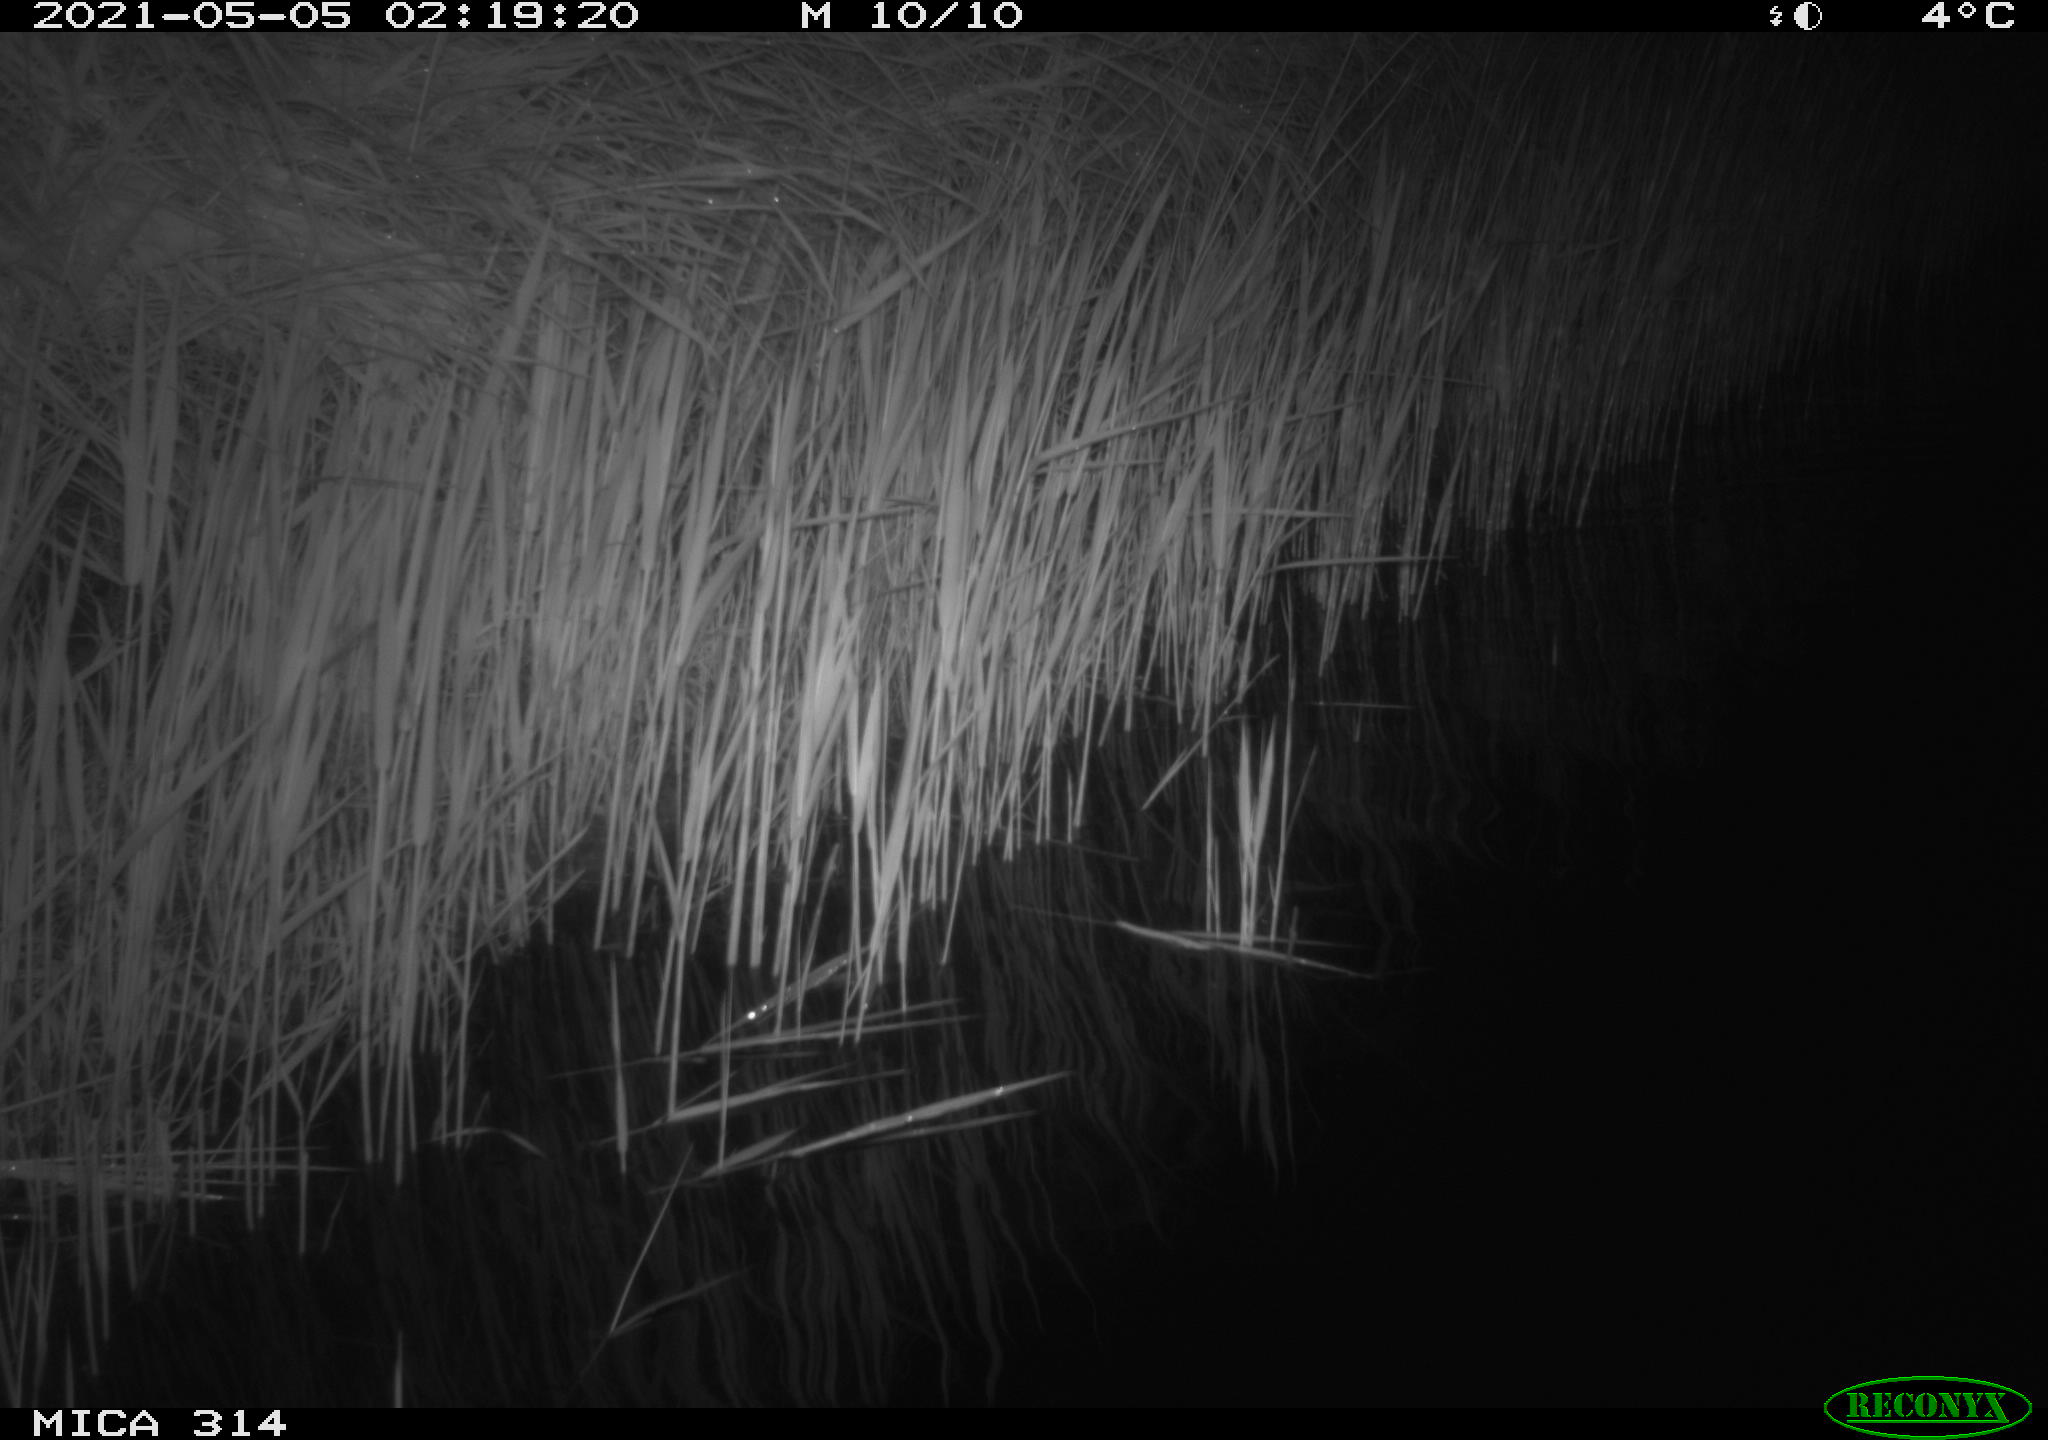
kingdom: Animalia
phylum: Chordata
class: Aves
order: Anseriformes
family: Anatidae
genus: Anas
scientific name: Anas platyrhynchos
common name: Mallard
